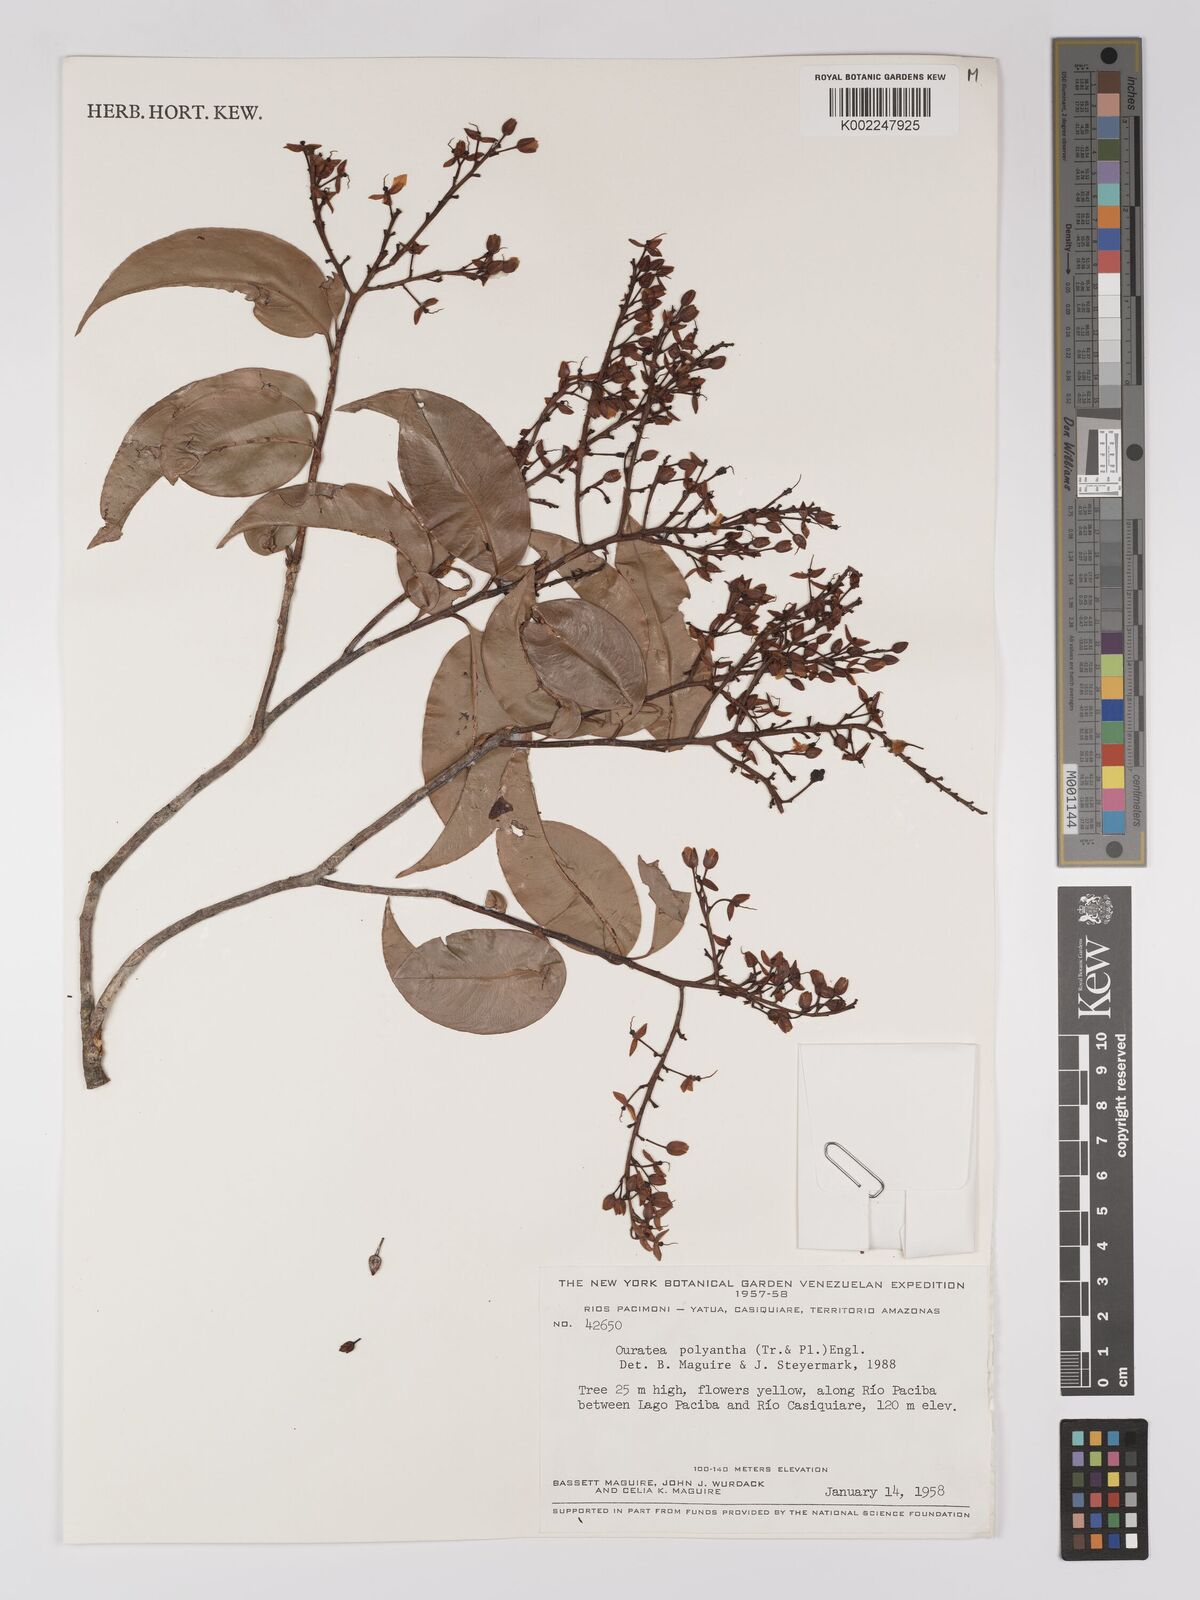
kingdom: Plantae
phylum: Tracheophyta
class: Magnoliopsida
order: Malpighiales
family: Ochnaceae
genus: Ouratea
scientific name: Ouratea polyantha
